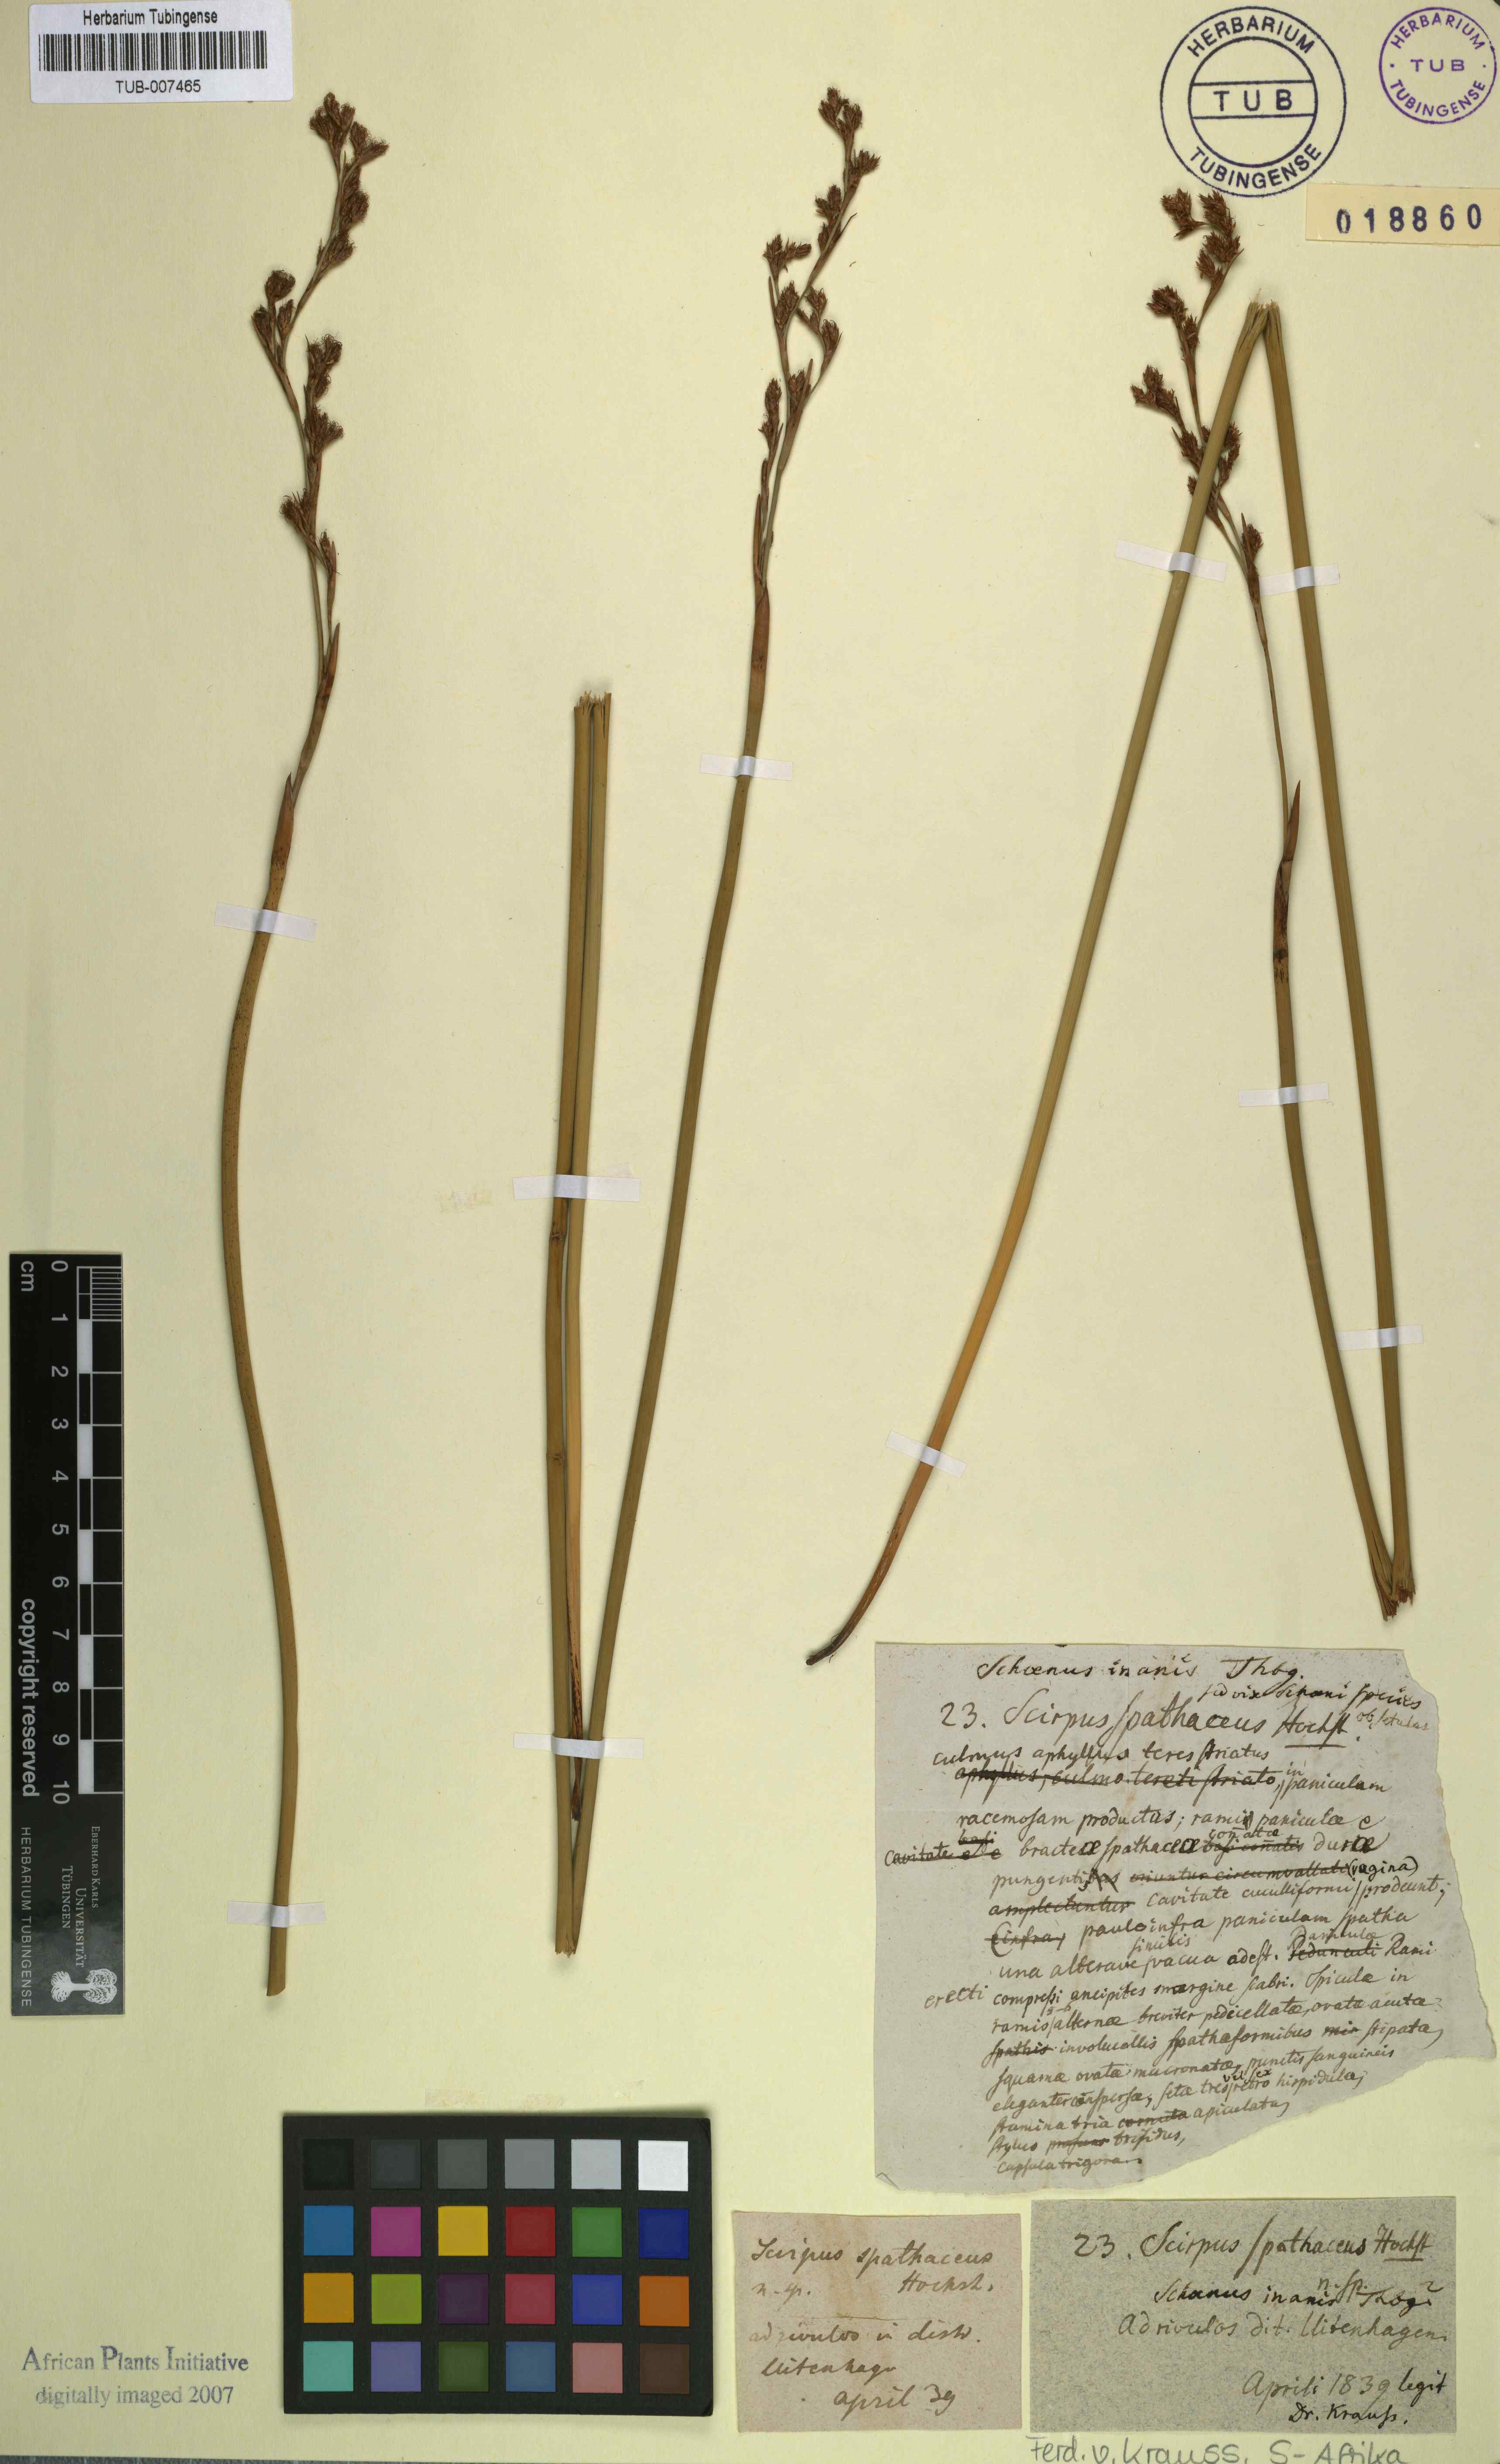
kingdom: Plantae
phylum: Tracheophyta
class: Liliopsida
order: Poales
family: Cyperaceae
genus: Pseudoschoenus
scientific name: Pseudoschoenus inanis
